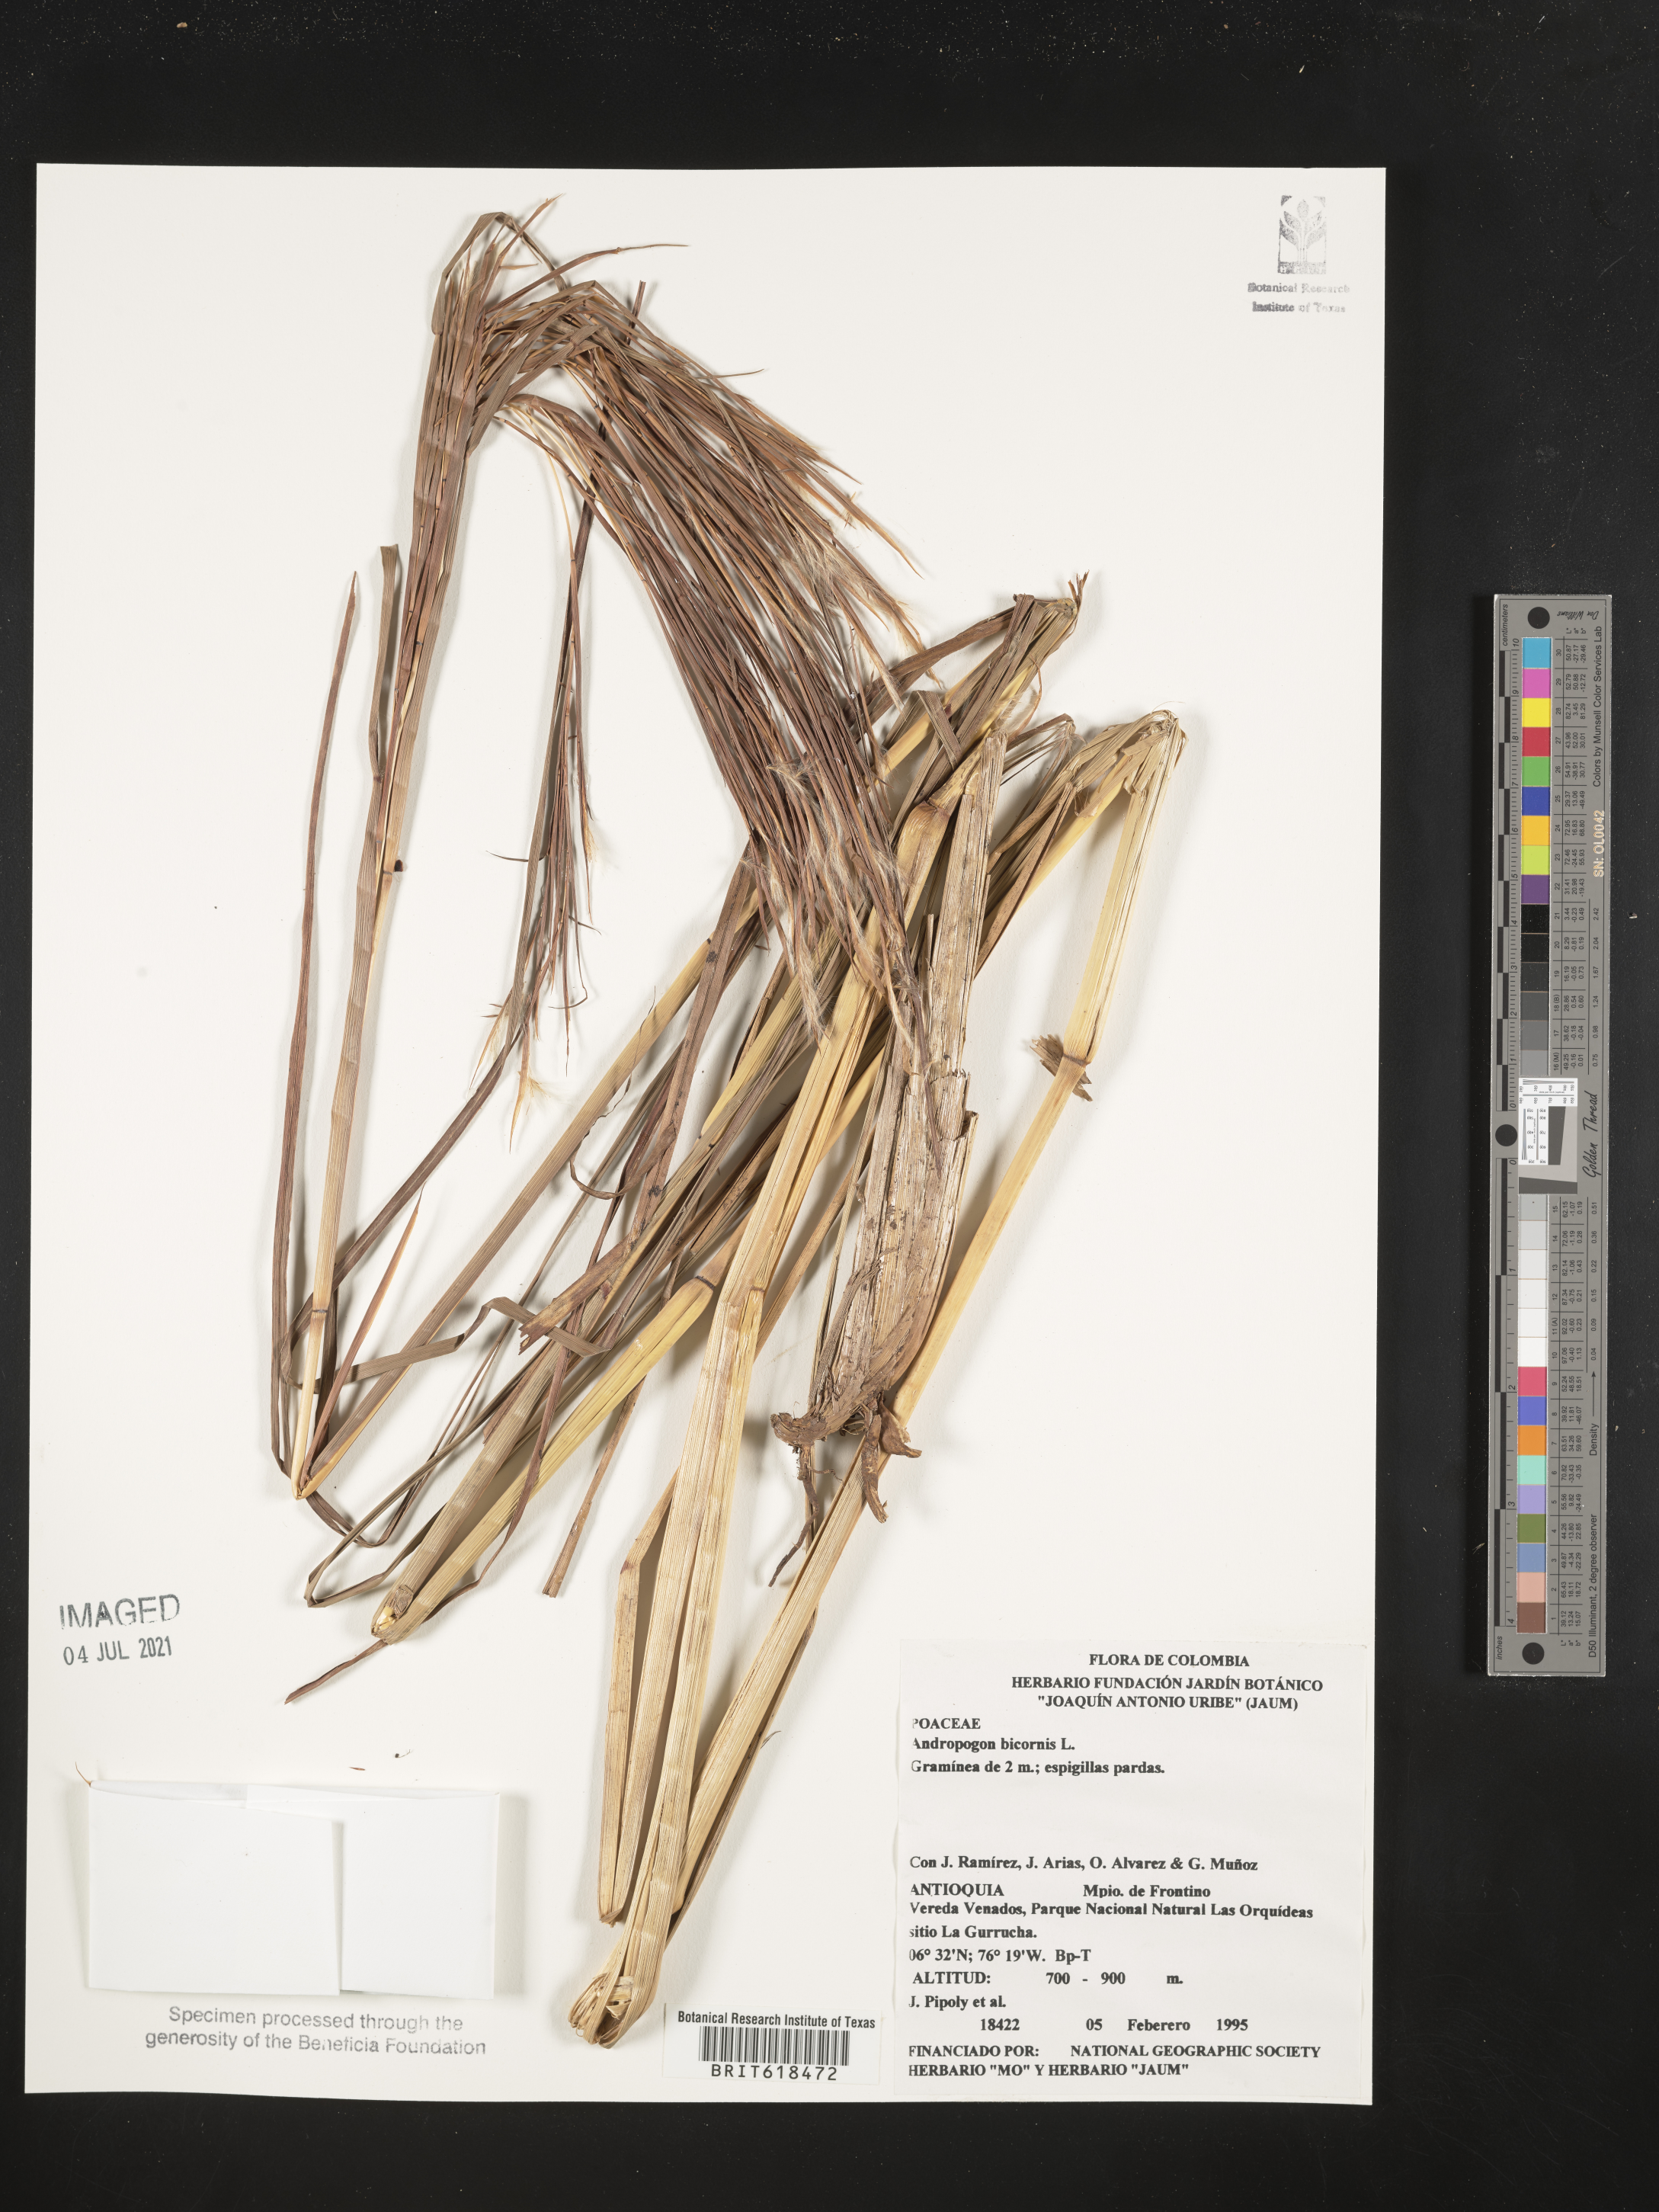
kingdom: Plantae
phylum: Tracheophyta
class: Liliopsida
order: Poales
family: Poaceae
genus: Andropogon
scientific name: Andropogon bicornis
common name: West indian foxtail grass
